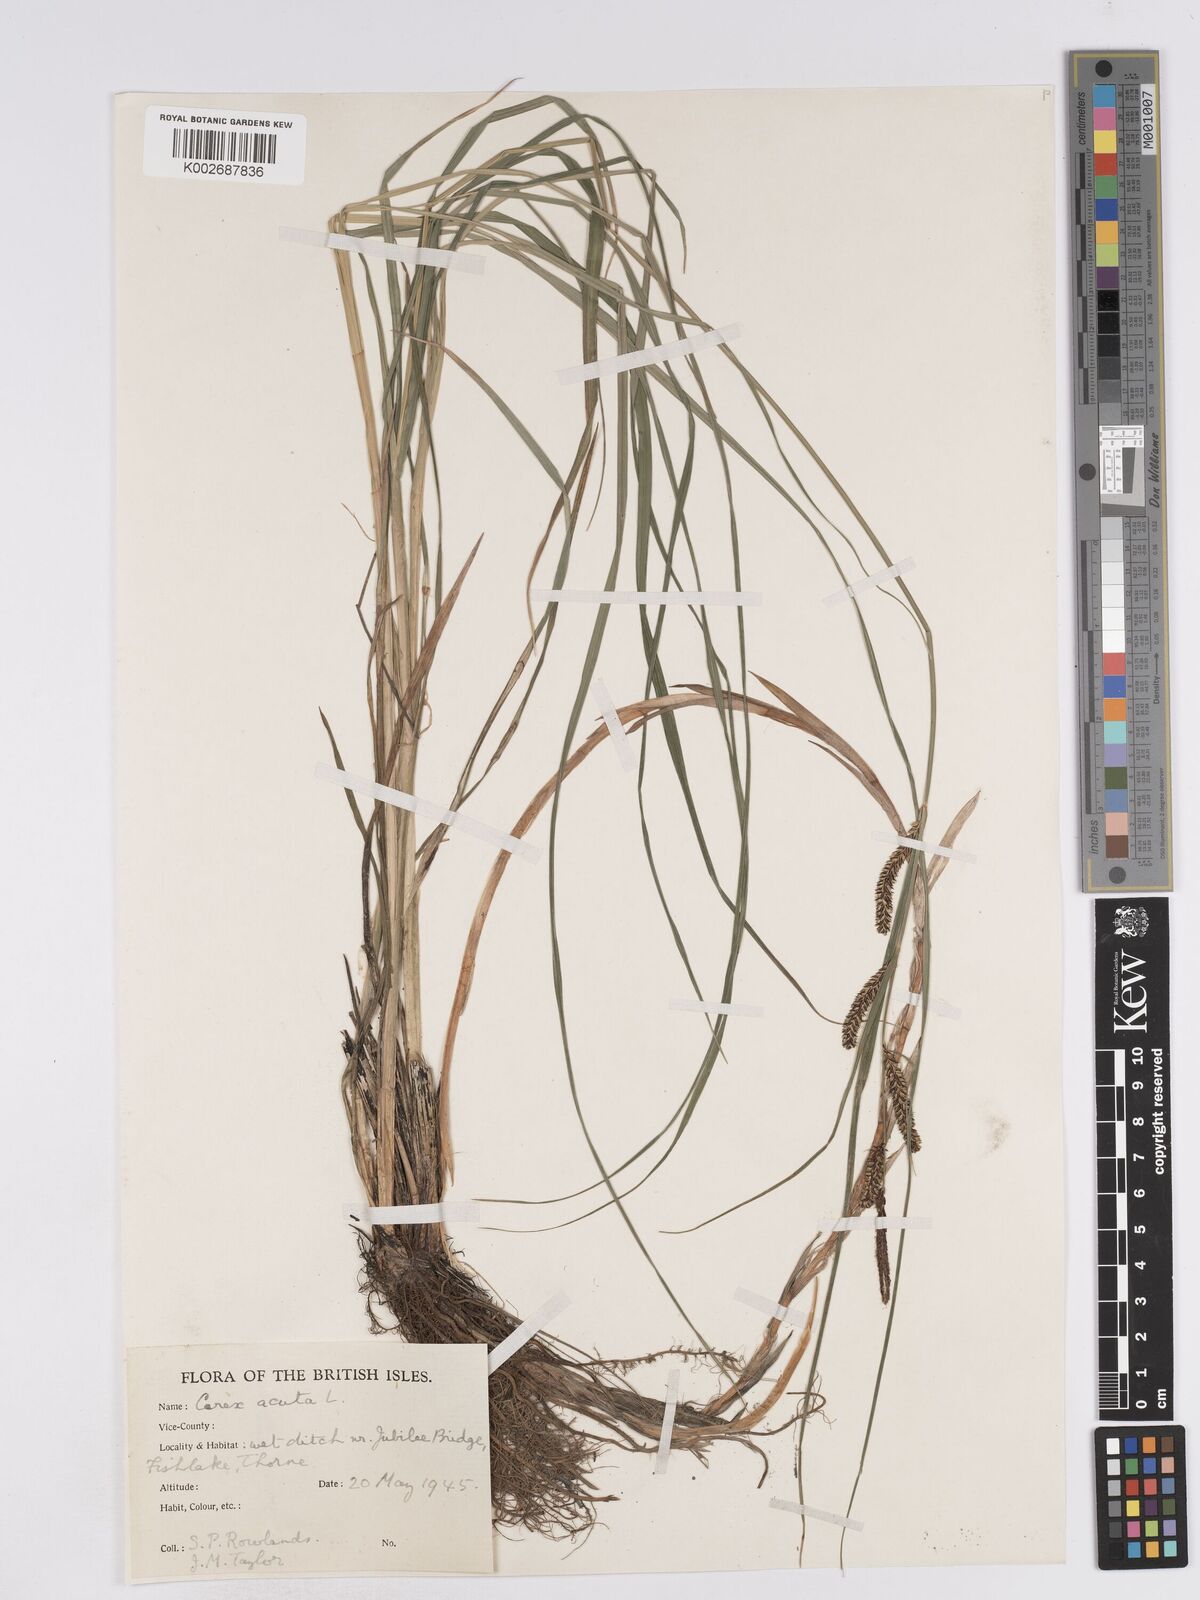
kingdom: Plantae
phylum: Tracheophyta
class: Liliopsida
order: Poales
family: Cyperaceae
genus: Carex
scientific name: Carex acuta
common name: Slender tufted-sedge
